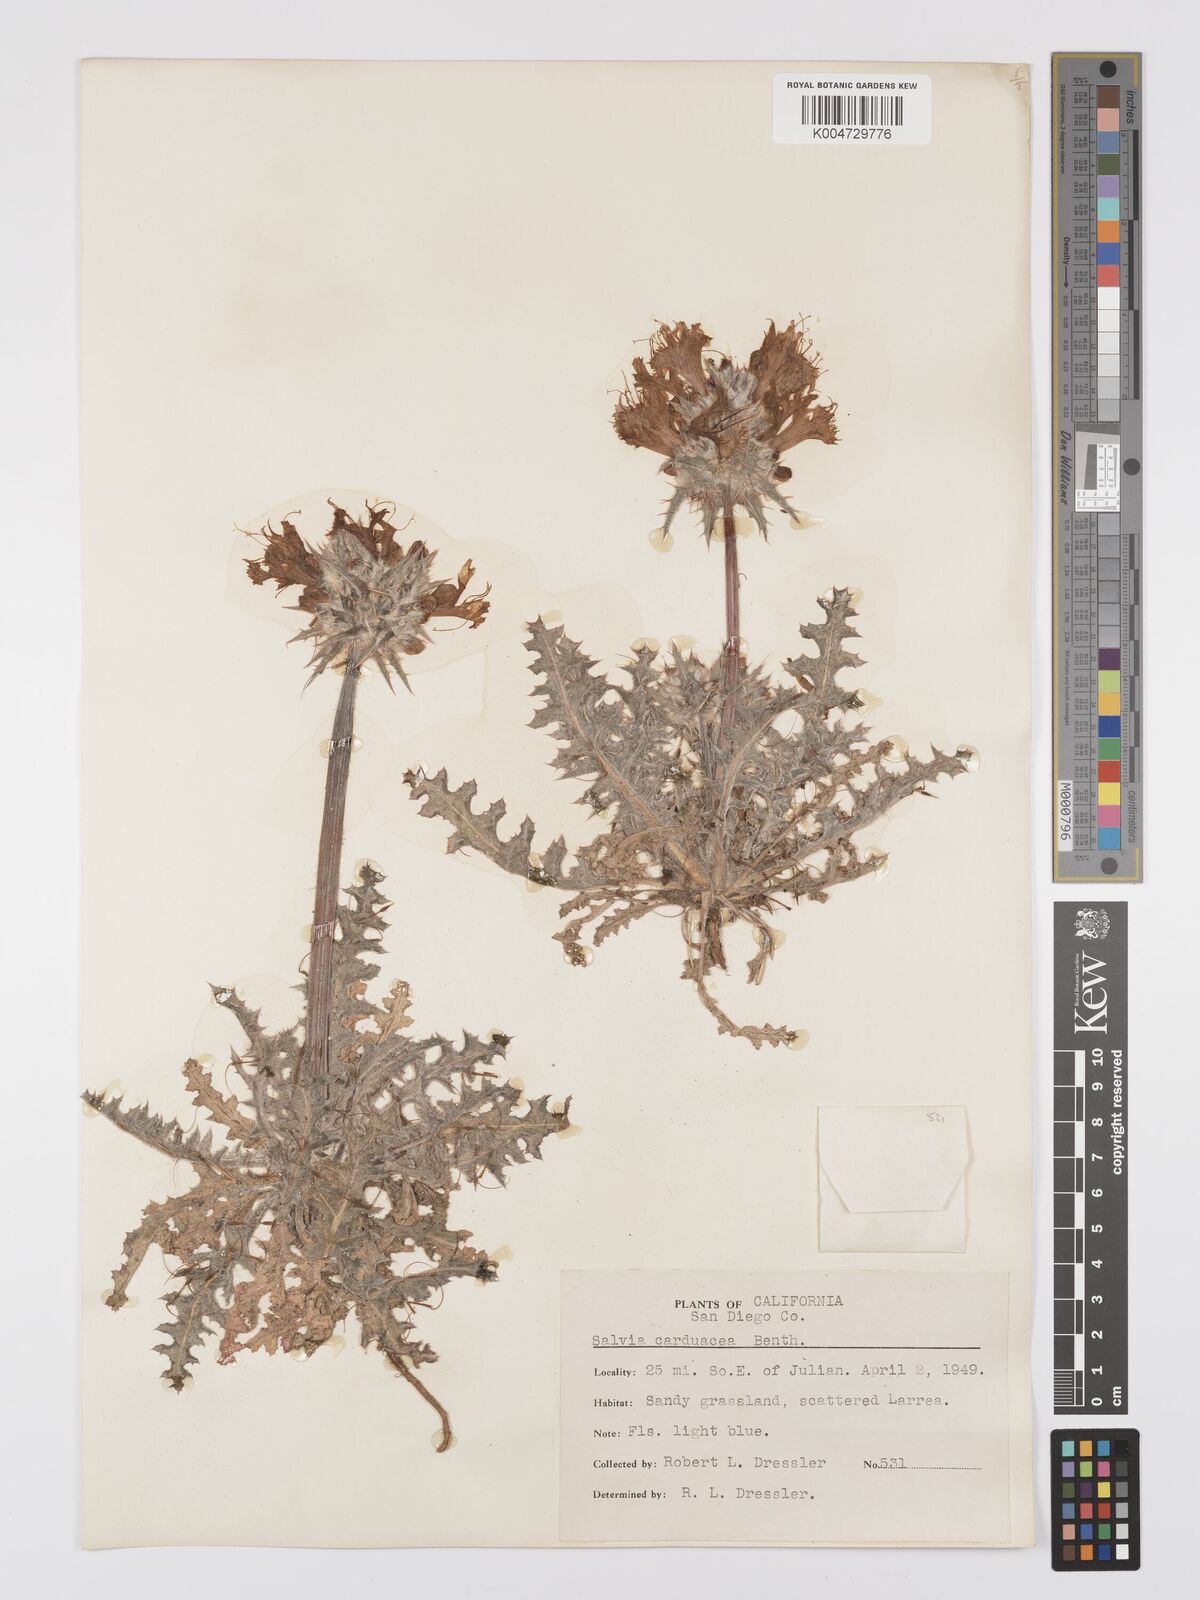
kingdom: Plantae
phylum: Tracheophyta
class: Magnoliopsida
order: Lamiales
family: Lamiaceae
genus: Salvia
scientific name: Salvia carduacea
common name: Thistle sage
